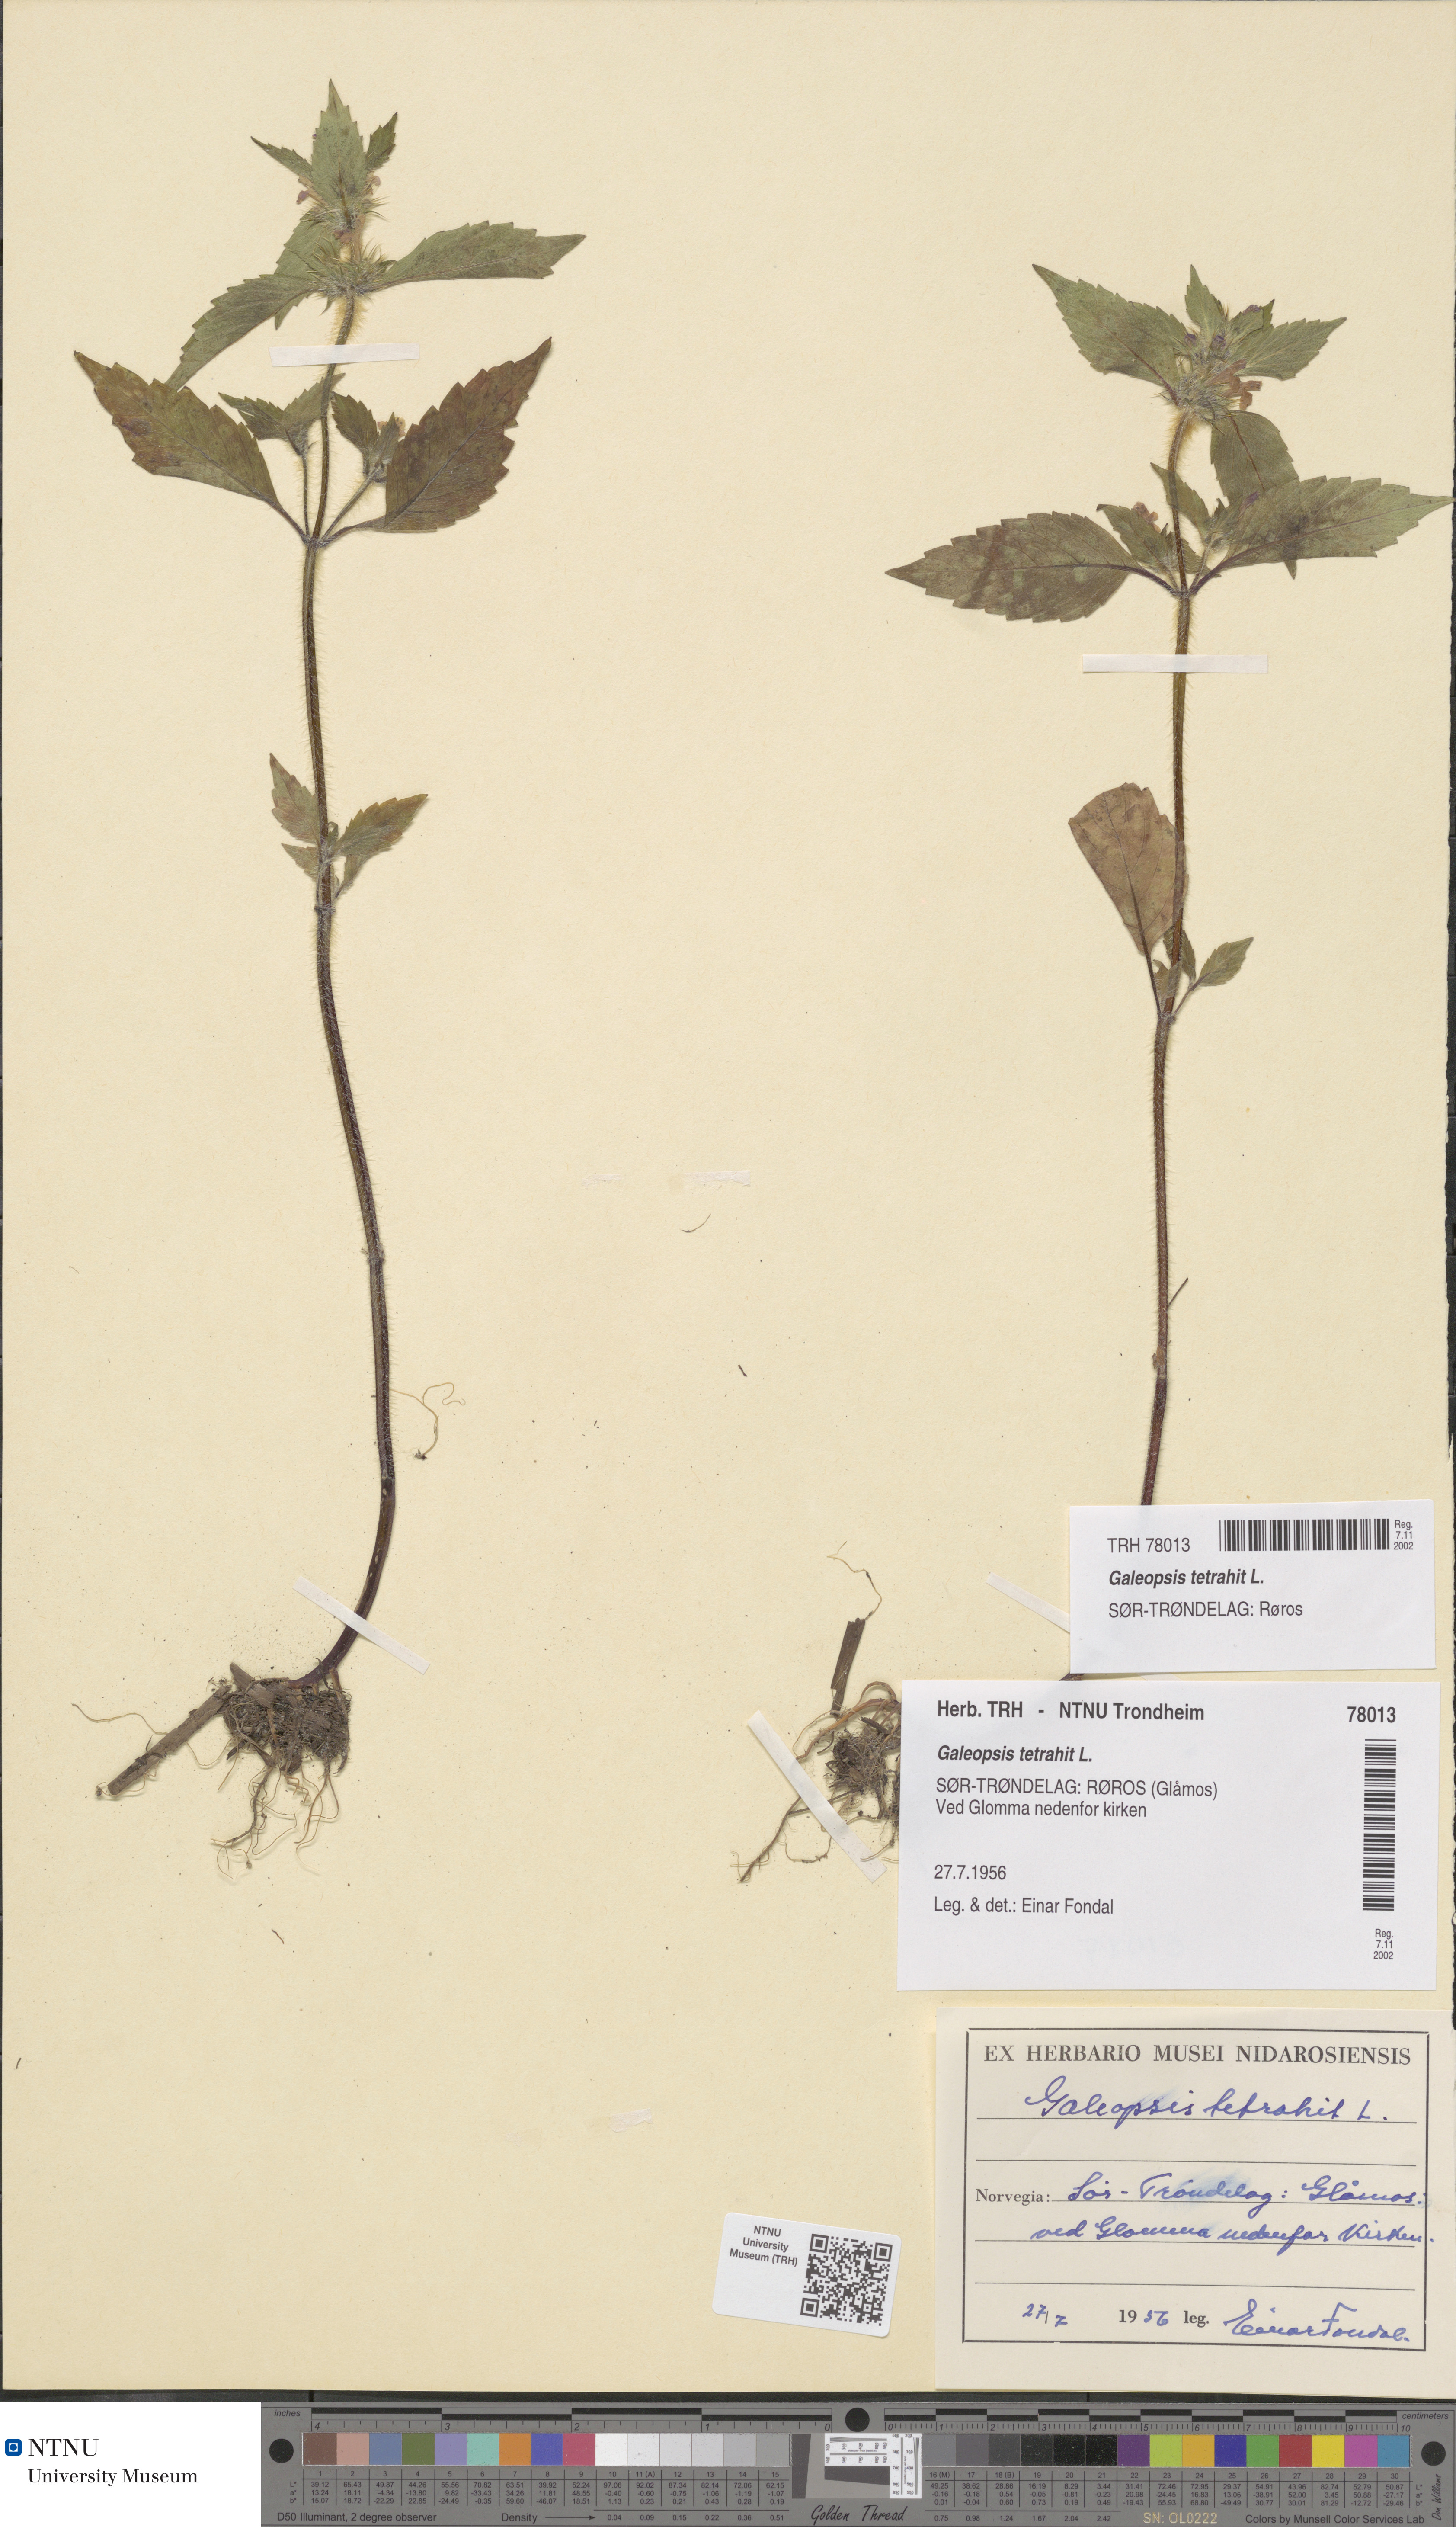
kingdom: Plantae
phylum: Tracheophyta
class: Magnoliopsida
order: Lamiales
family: Lamiaceae
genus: Galeopsis
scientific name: Galeopsis tetrahit
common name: Common hemp-nettle
